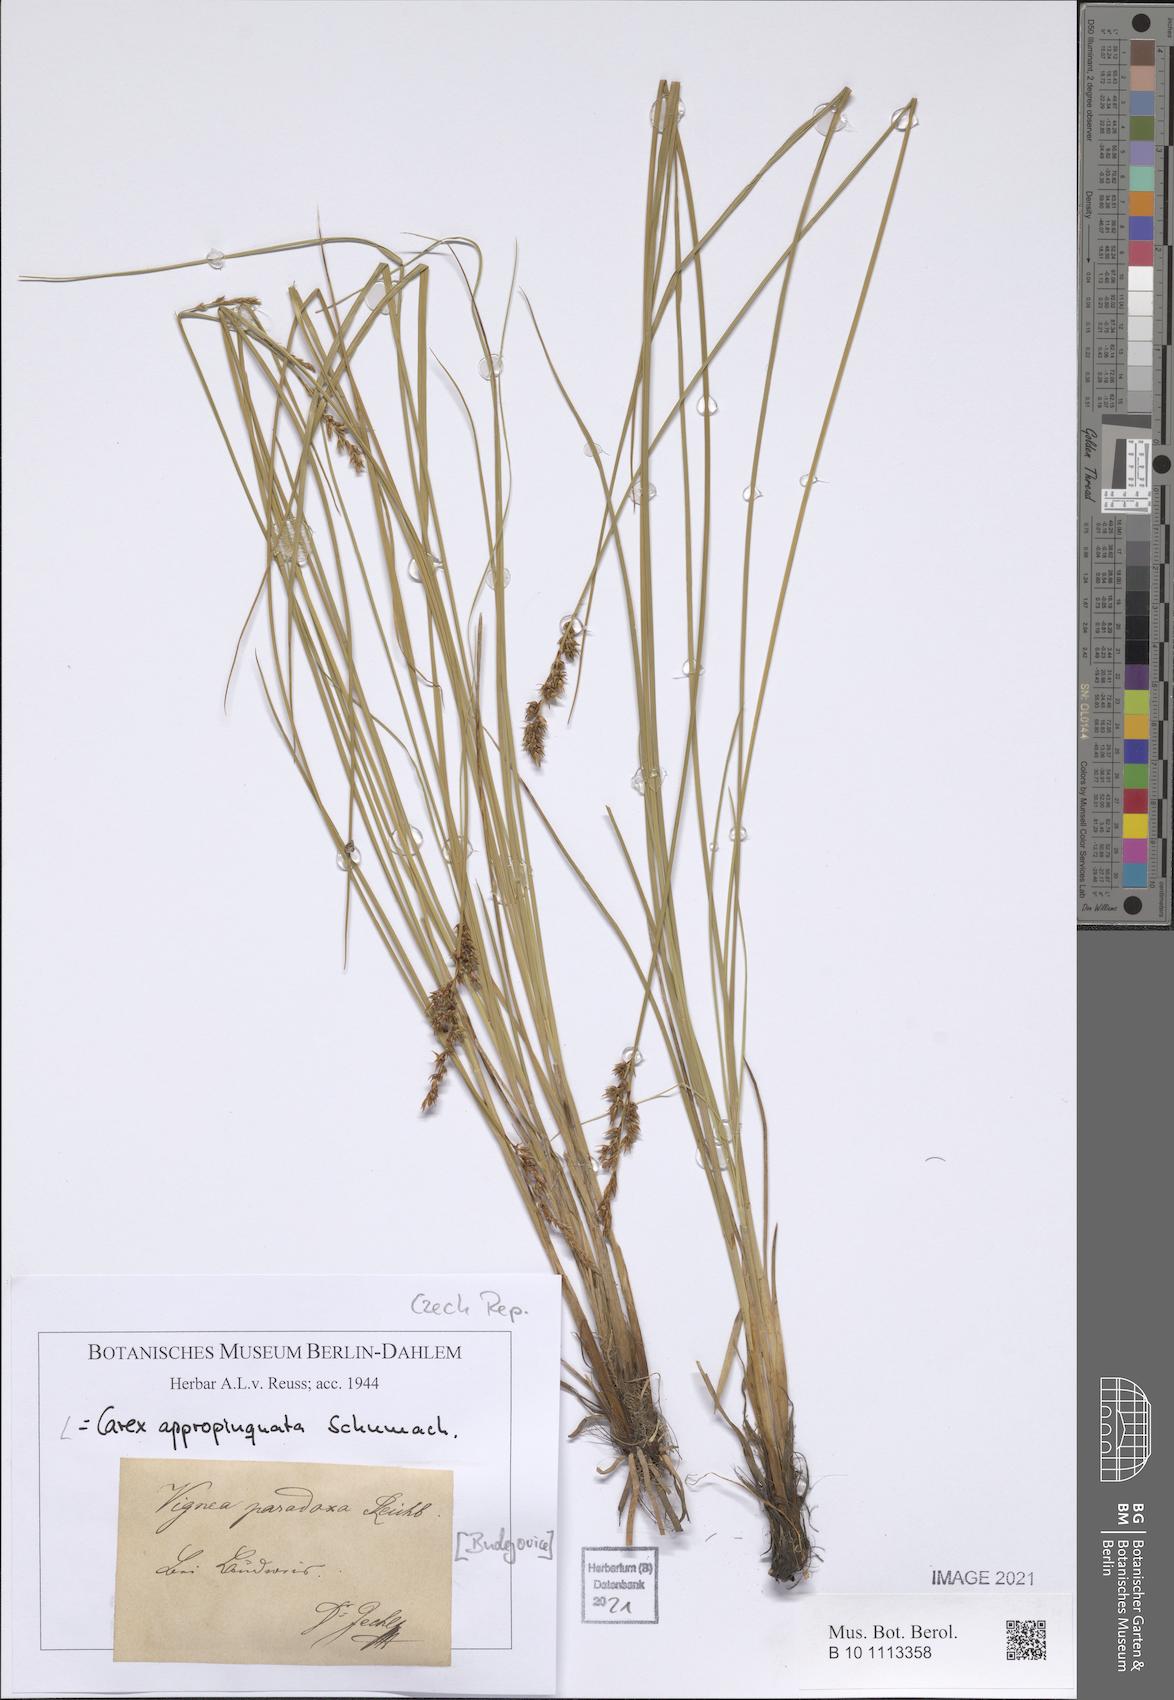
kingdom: Plantae
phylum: Tracheophyta
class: Liliopsida
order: Poales
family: Cyperaceae
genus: Carex
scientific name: Carex appropinquata
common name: Fibrous tussock-sedge
